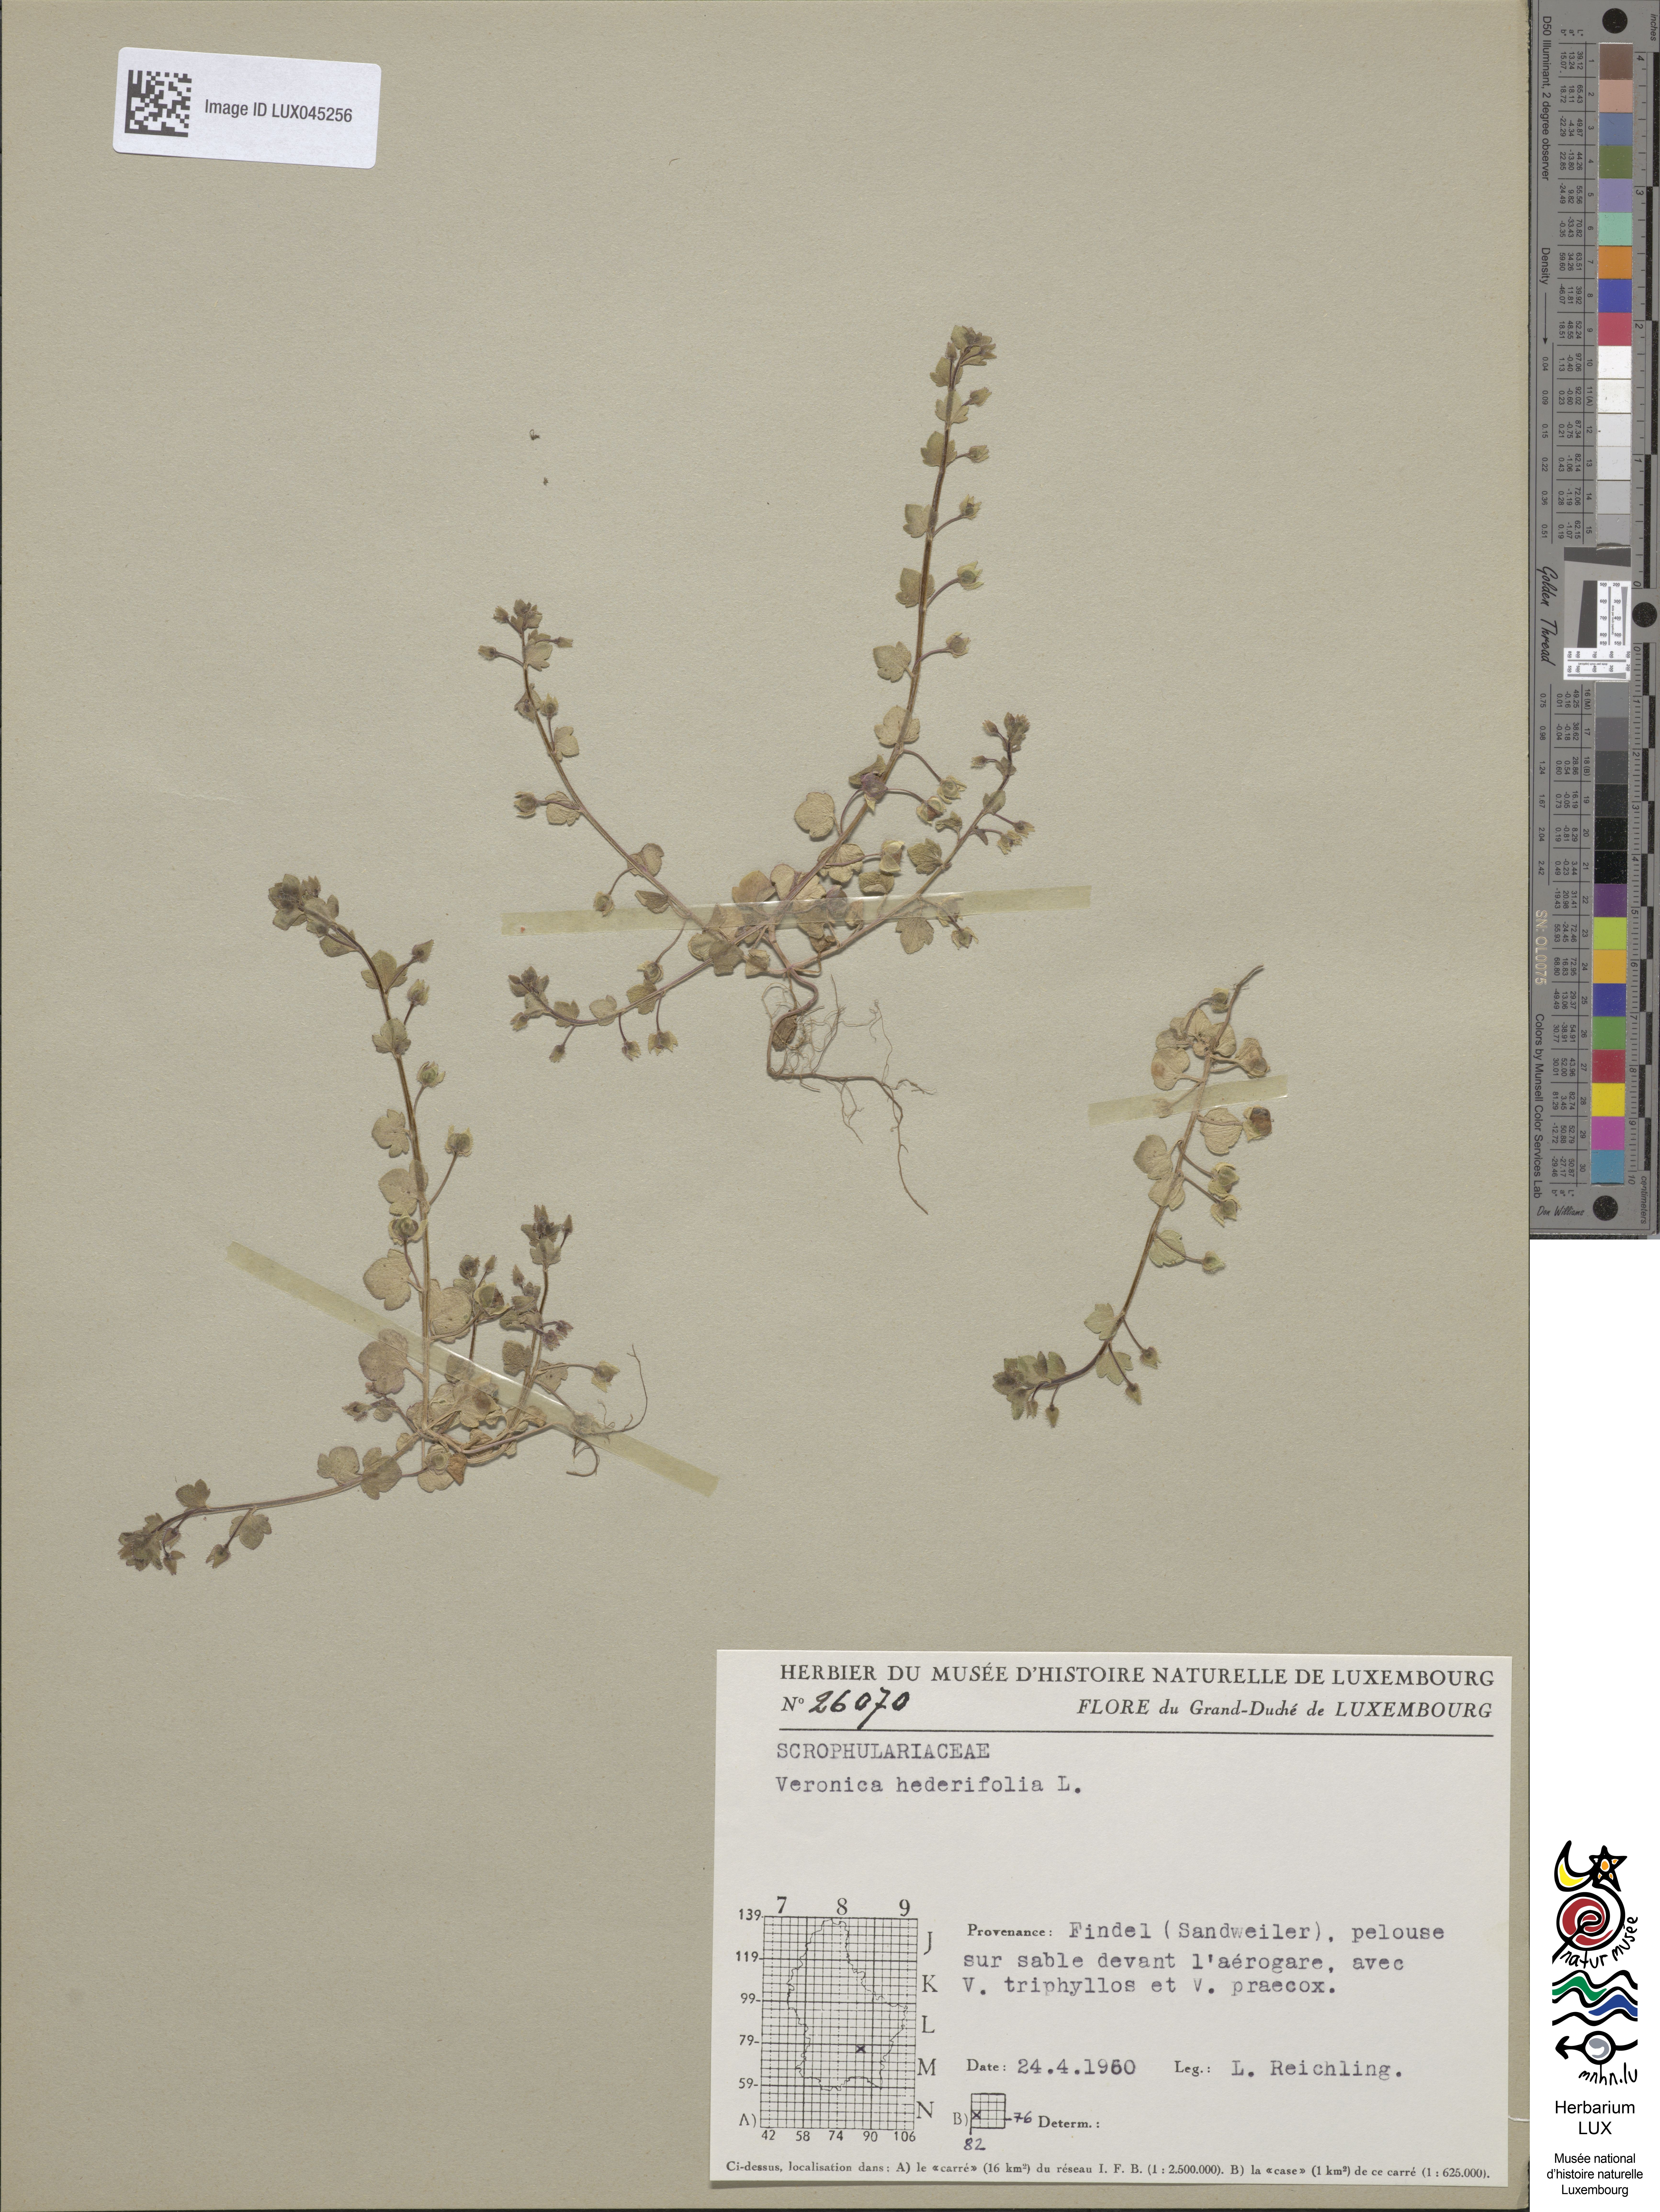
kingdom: Plantae
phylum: Tracheophyta
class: Magnoliopsida
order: Lamiales
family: Plantaginaceae
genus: Veronica
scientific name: Veronica hederifolia
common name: Ivy-leaved speedwell
